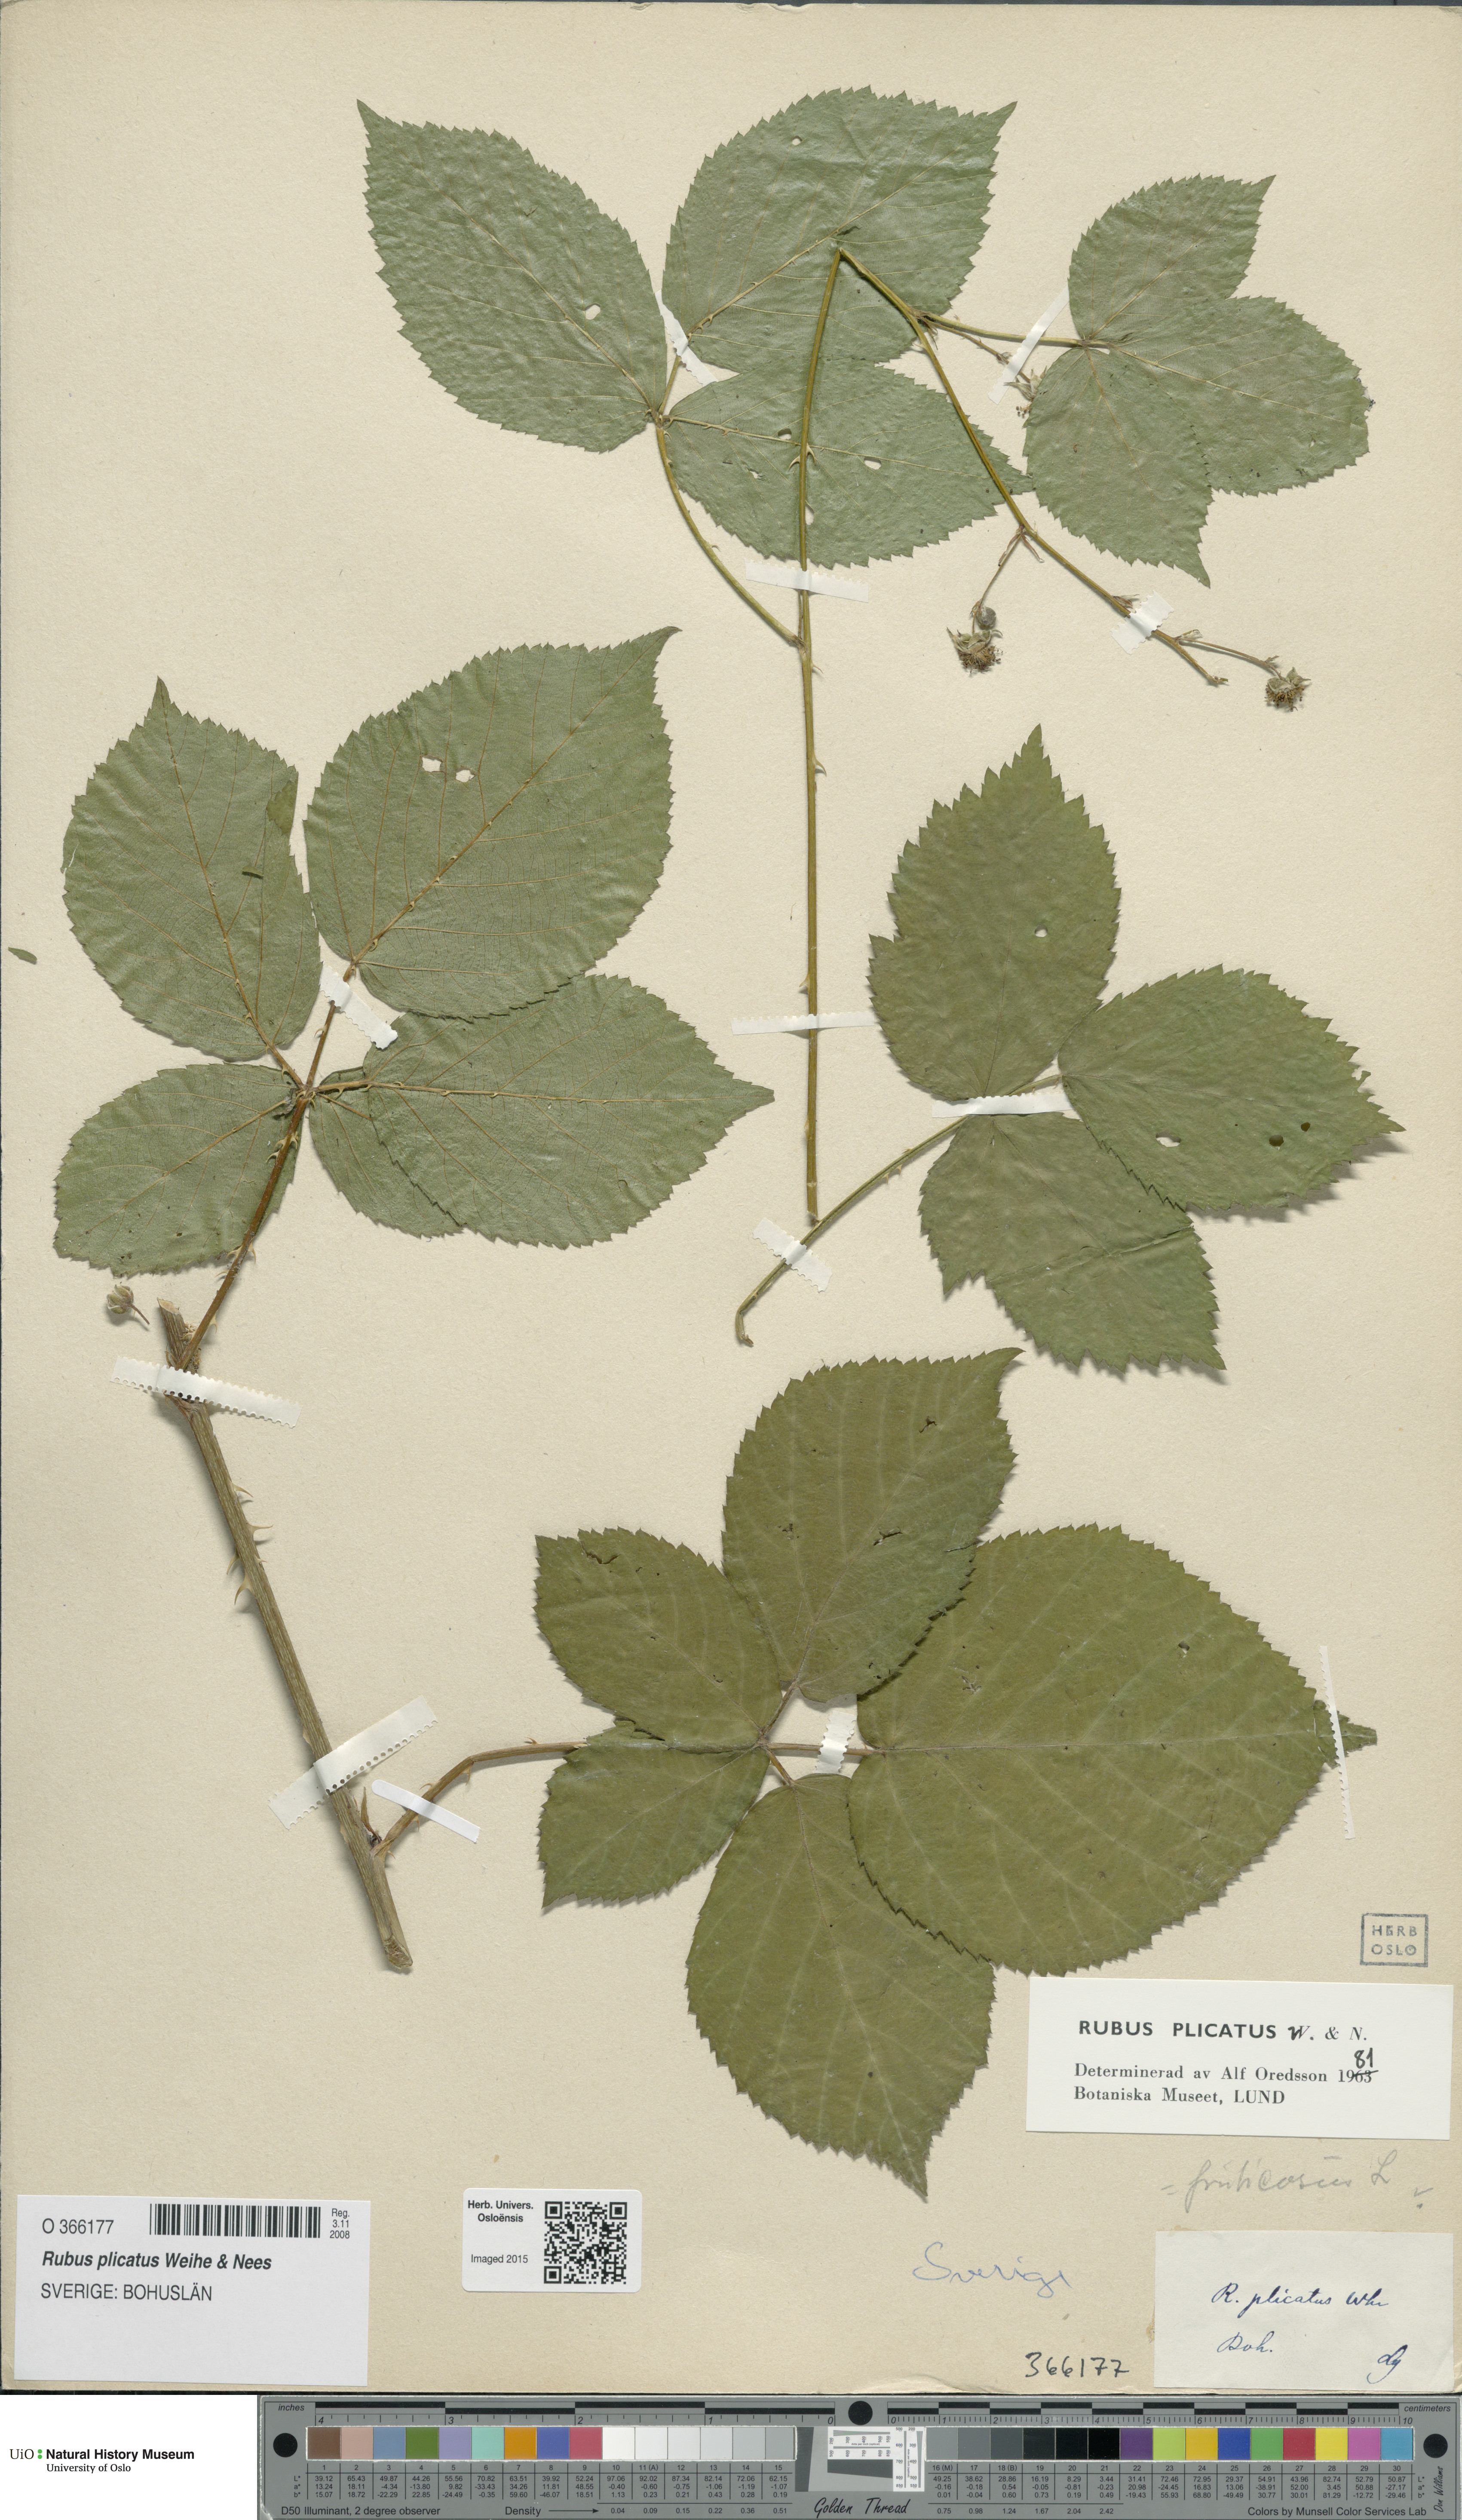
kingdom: Plantae
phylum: Tracheophyta
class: Magnoliopsida
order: Rosales
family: Rosaceae
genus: Rubus
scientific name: Rubus fruticosus
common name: Blackberry, bramble
